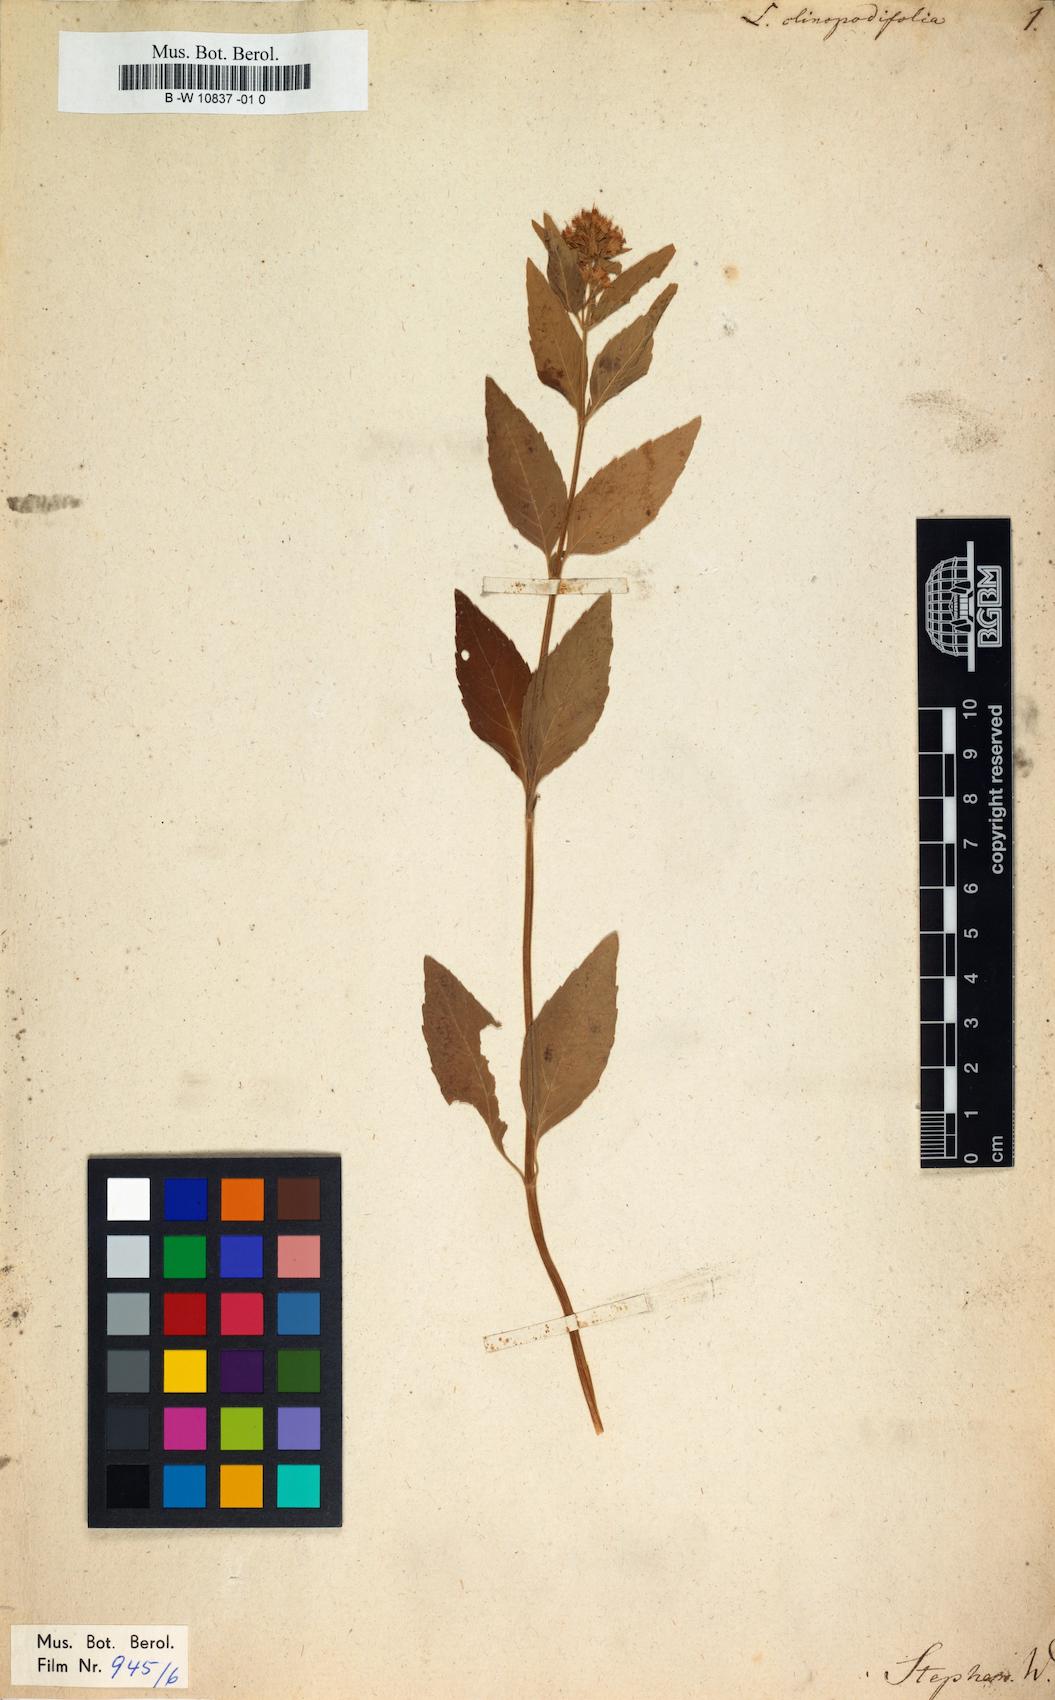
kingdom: Plantae
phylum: Tracheophyta
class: Magnoliopsida
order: Lamiales
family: Lamiaceae
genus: Mentha
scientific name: Mentha dahurica
